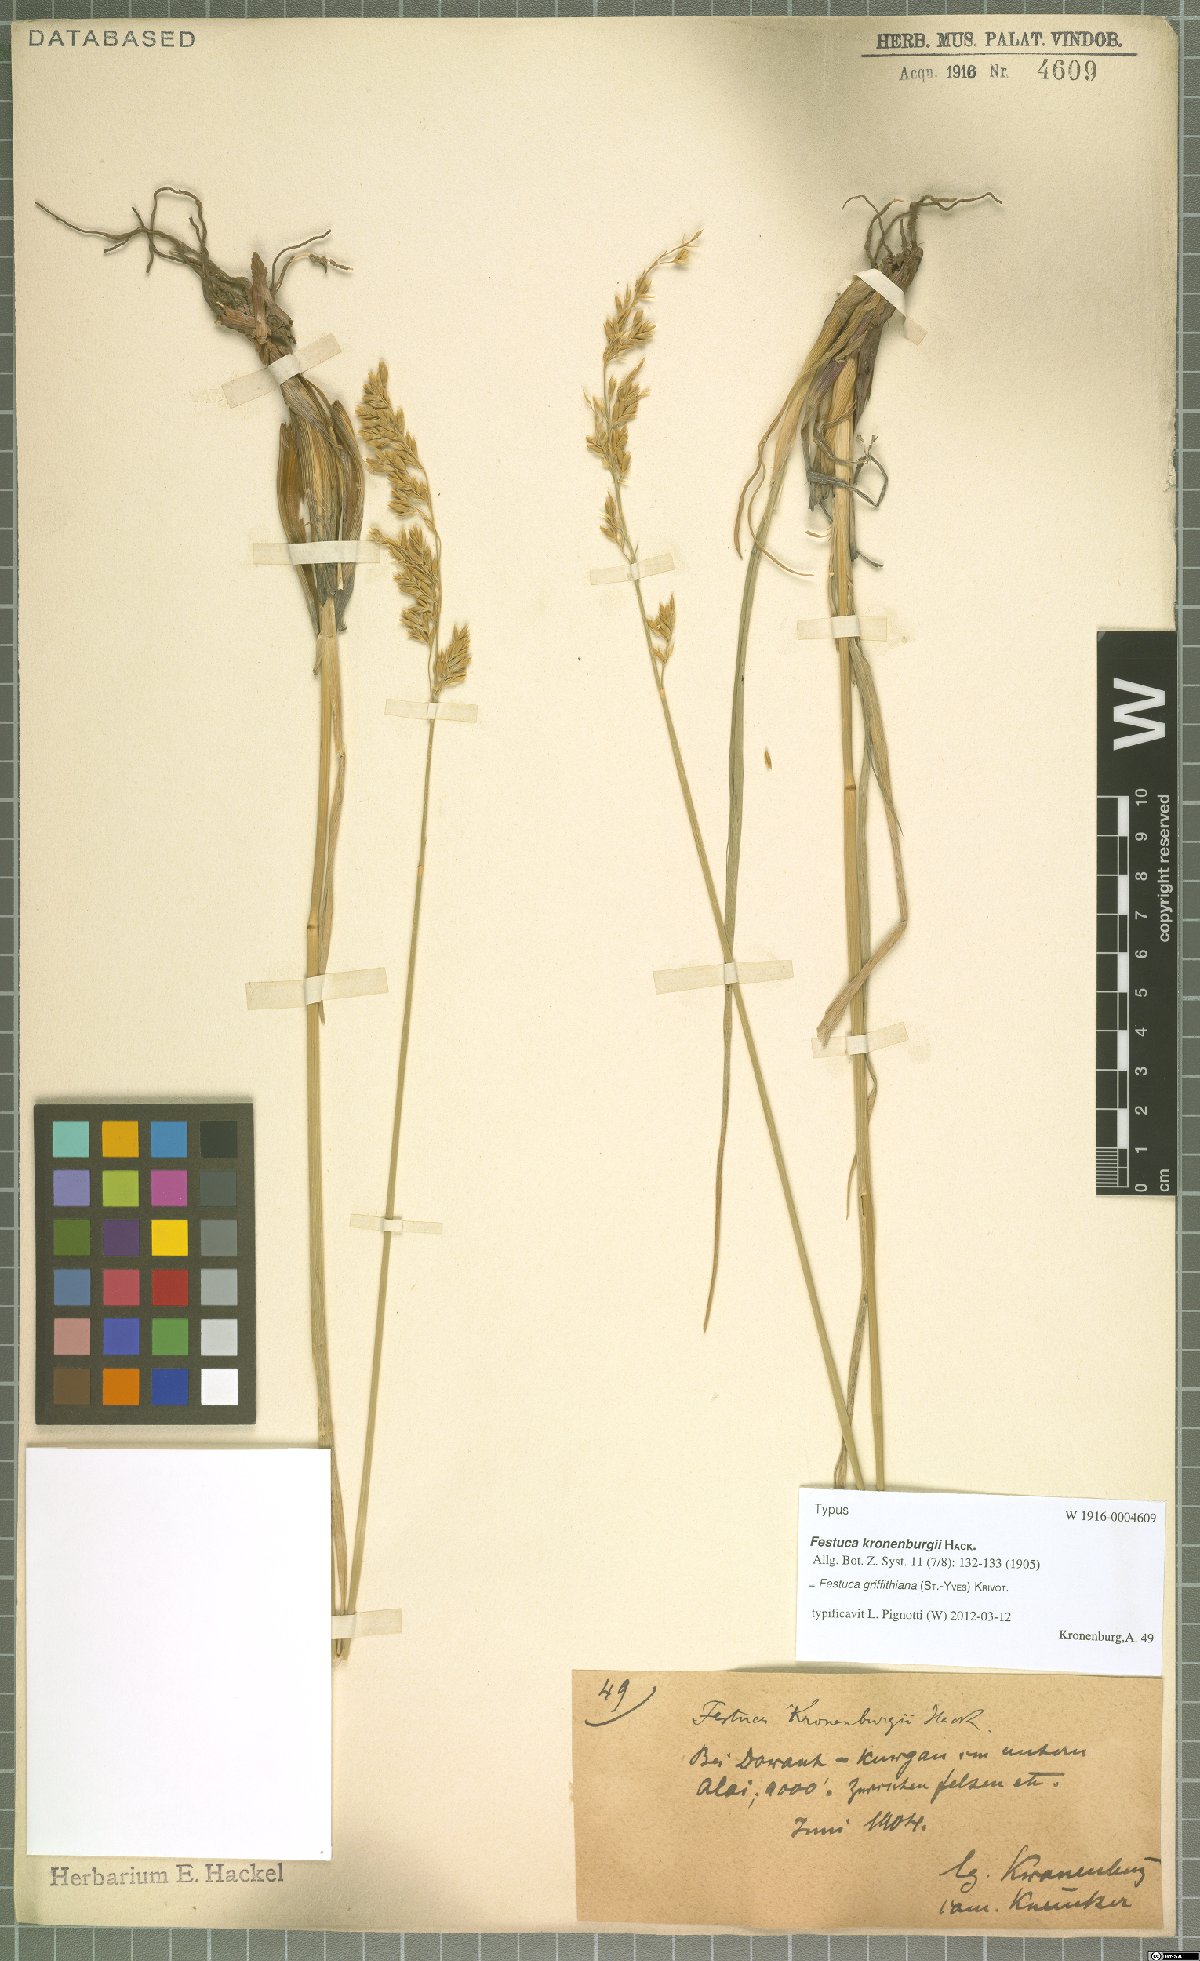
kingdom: Plantae
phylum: Tracheophyta
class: Liliopsida
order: Poales
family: Poaceae
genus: Festuca
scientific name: Festuca karatavica
